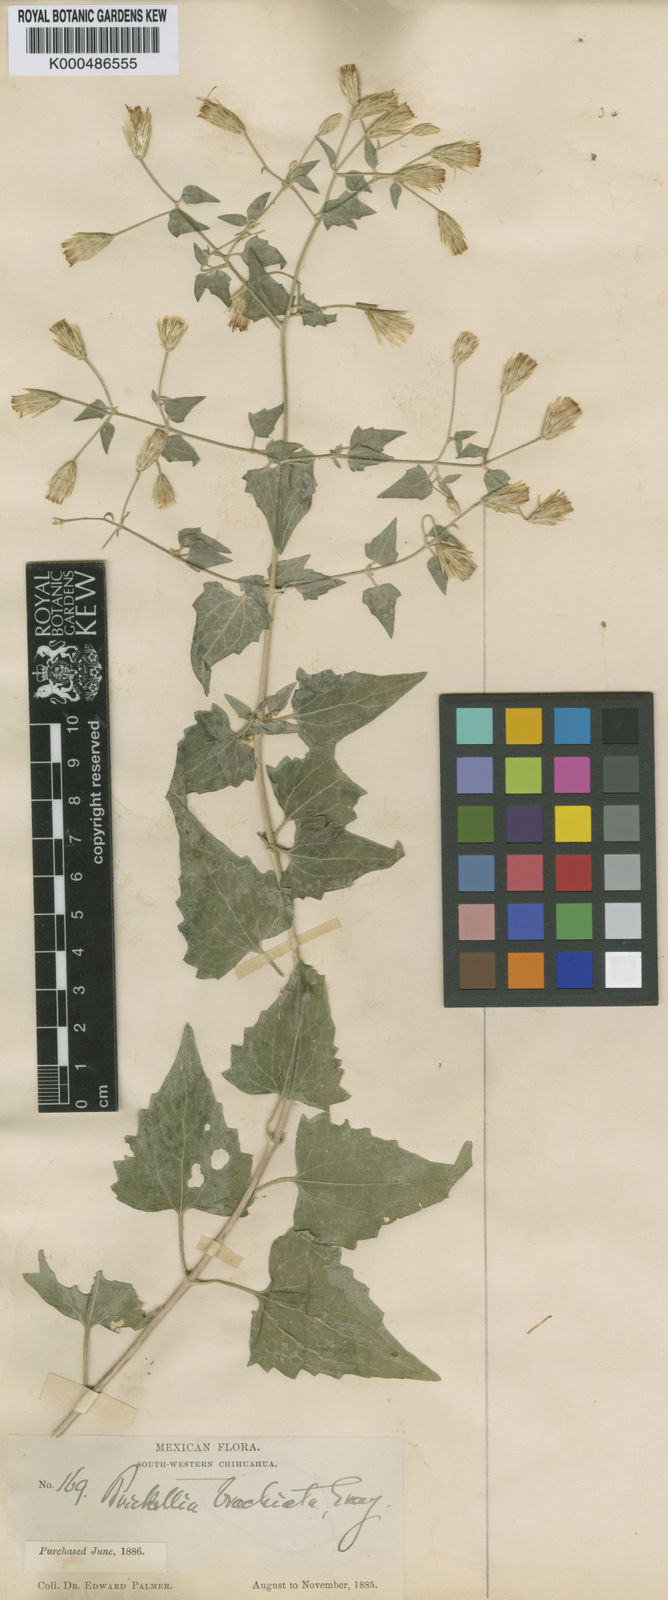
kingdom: Plantae
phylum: Tracheophyta
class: Magnoliopsida
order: Asterales
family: Asteraceae
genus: Brickellia
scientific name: Brickellia coulteri
